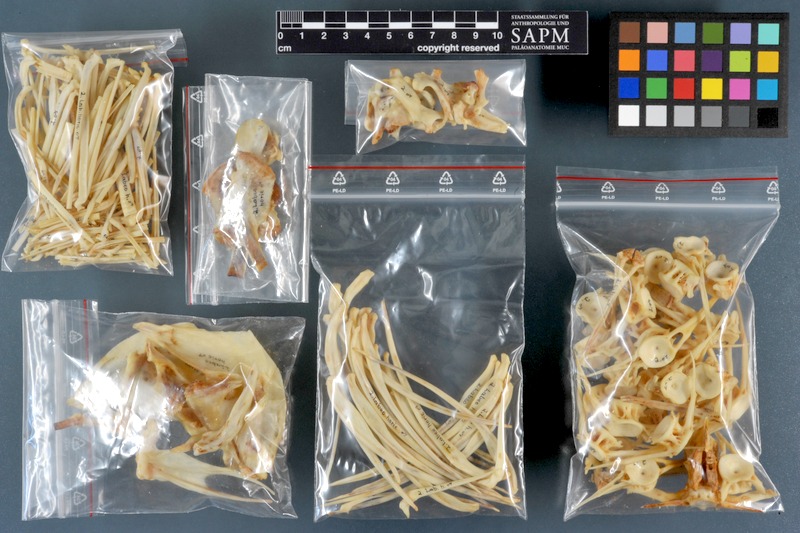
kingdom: Animalia
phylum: Chordata
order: Cypriniformes
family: Cyprinidae
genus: Labeo
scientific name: Labeo horie
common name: Assuan labeo
